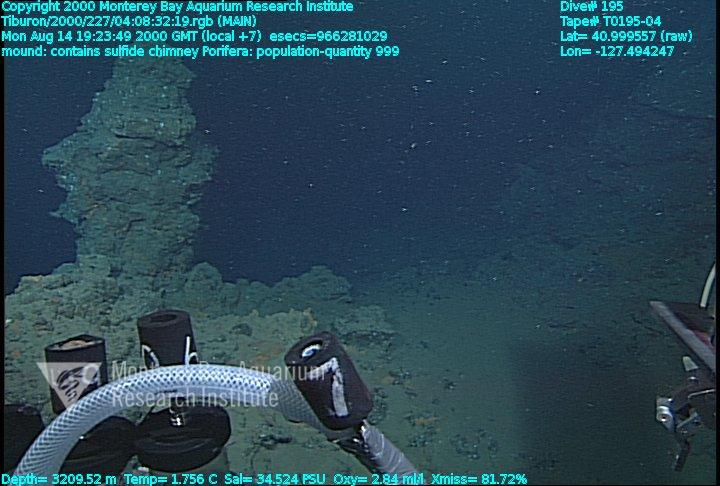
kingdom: Animalia
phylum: Porifera
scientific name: Porifera
